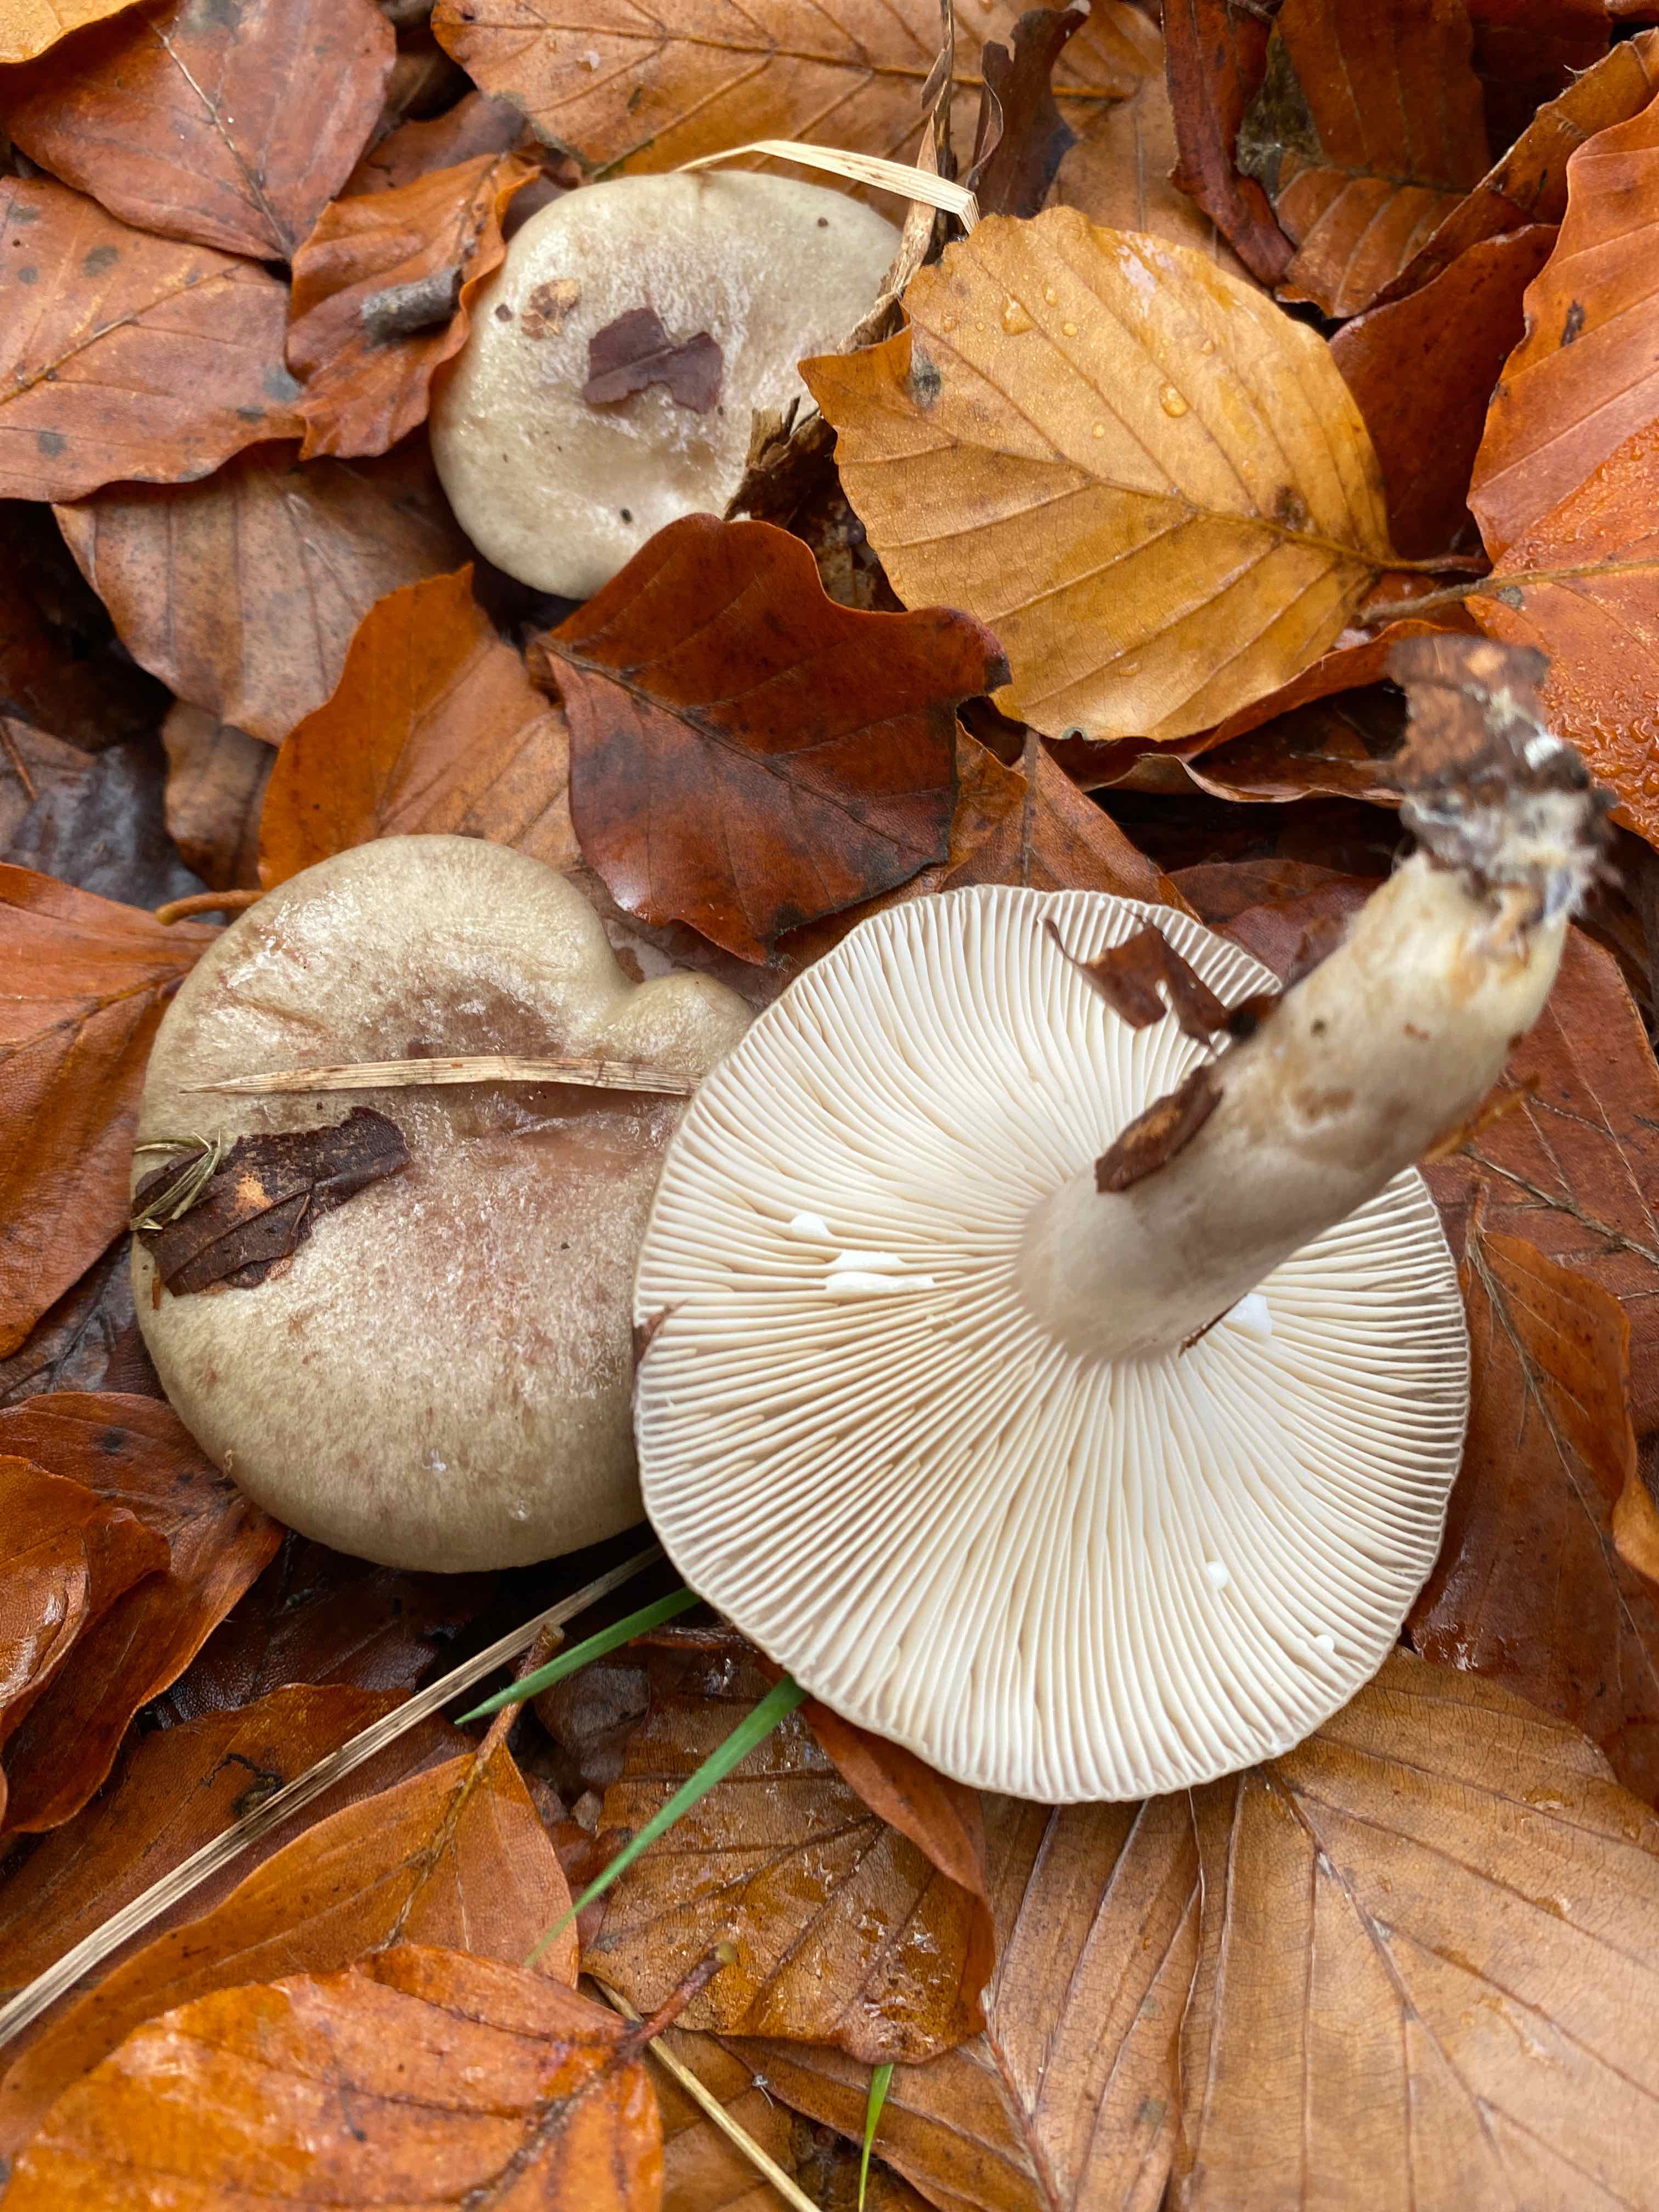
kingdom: Fungi
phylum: Basidiomycota
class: Agaricomycetes
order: Russulales
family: Russulaceae
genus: Lactarius
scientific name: Lactarius blennius
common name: dråbeplettet mælkehat
